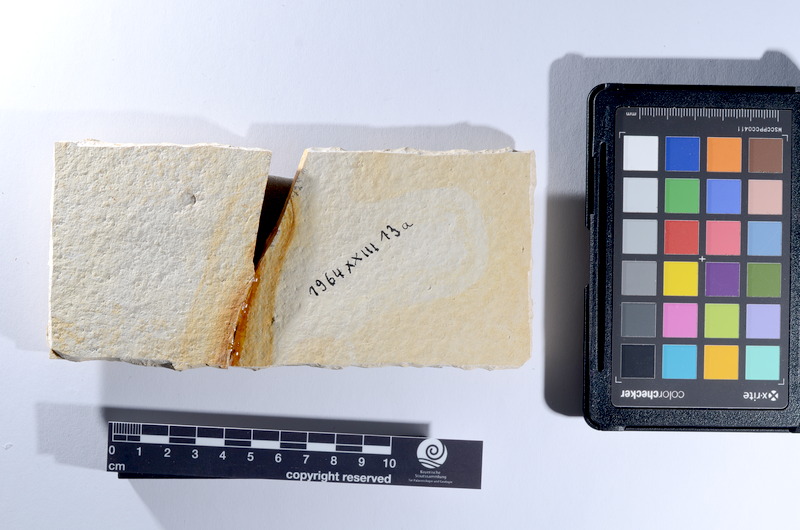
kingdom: Animalia
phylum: Chordata
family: Ascalaboidae
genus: Tharsis
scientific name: Tharsis dubius
